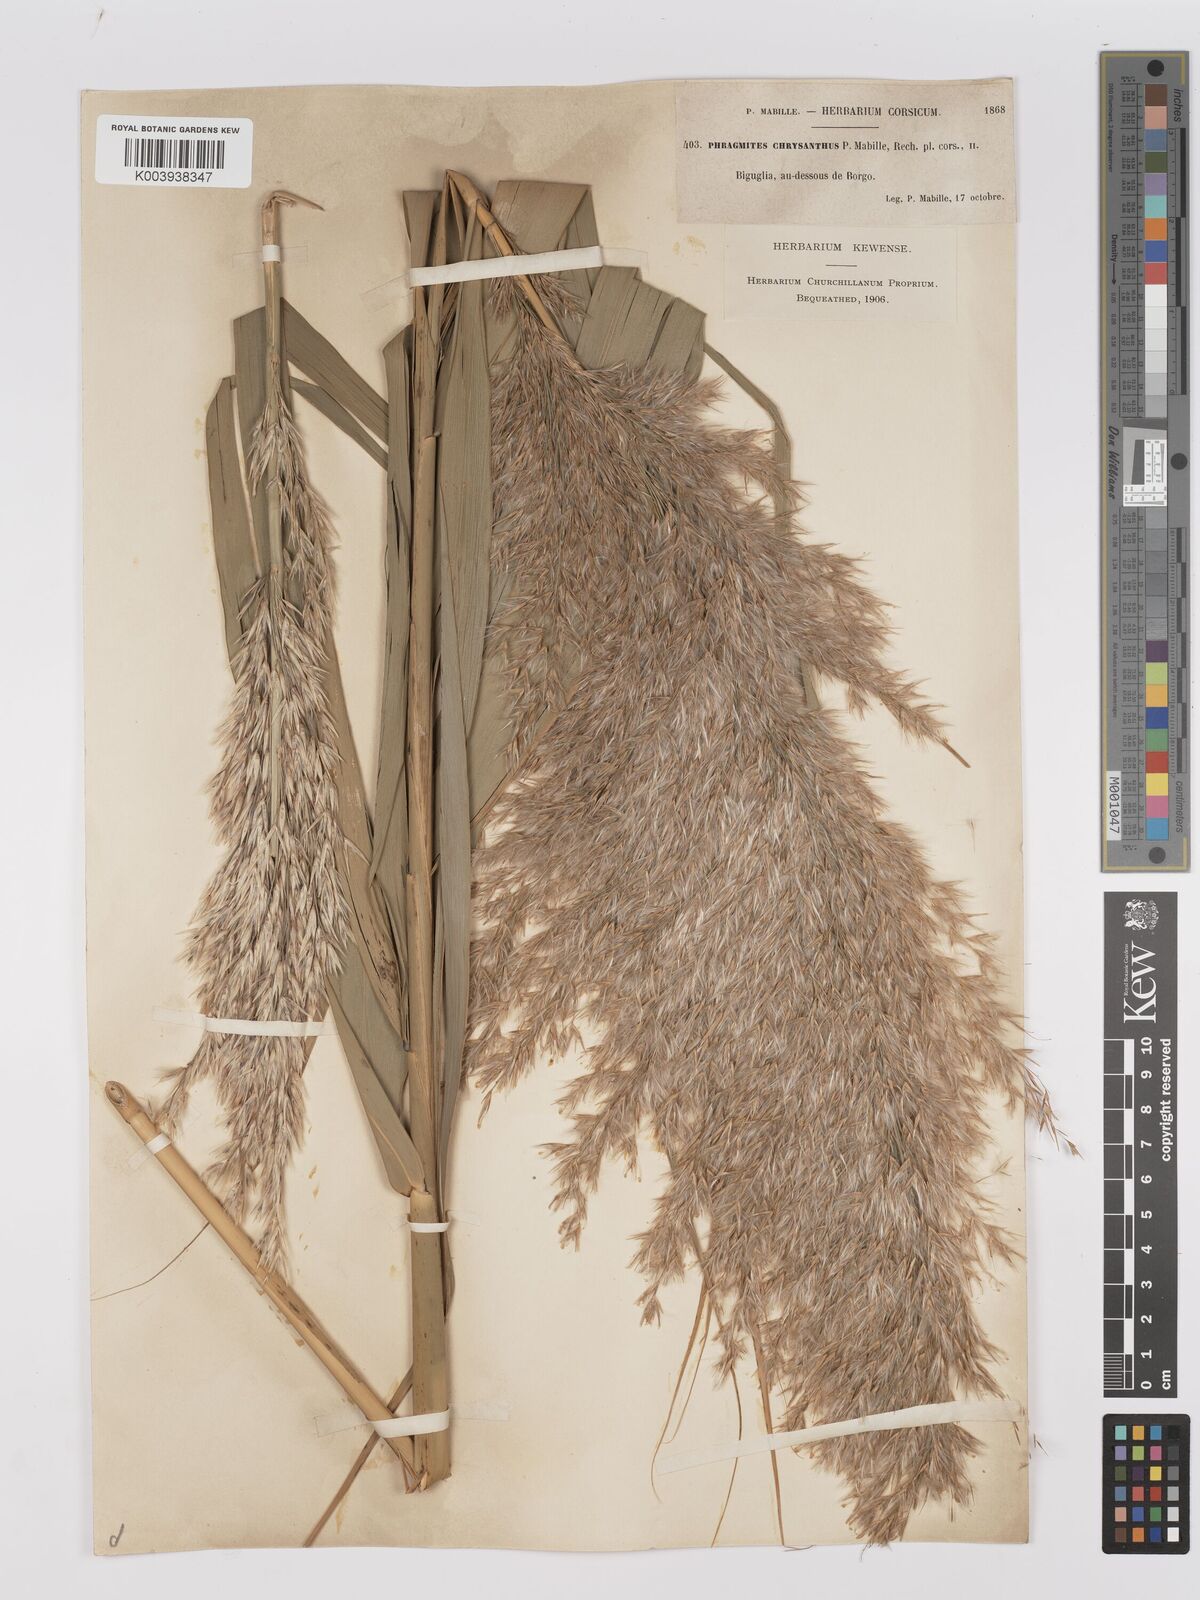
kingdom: Plantae
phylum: Tracheophyta
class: Liliopsida
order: Poales
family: Poaceae
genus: Phragmites
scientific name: Phragmites australis
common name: Common reed
